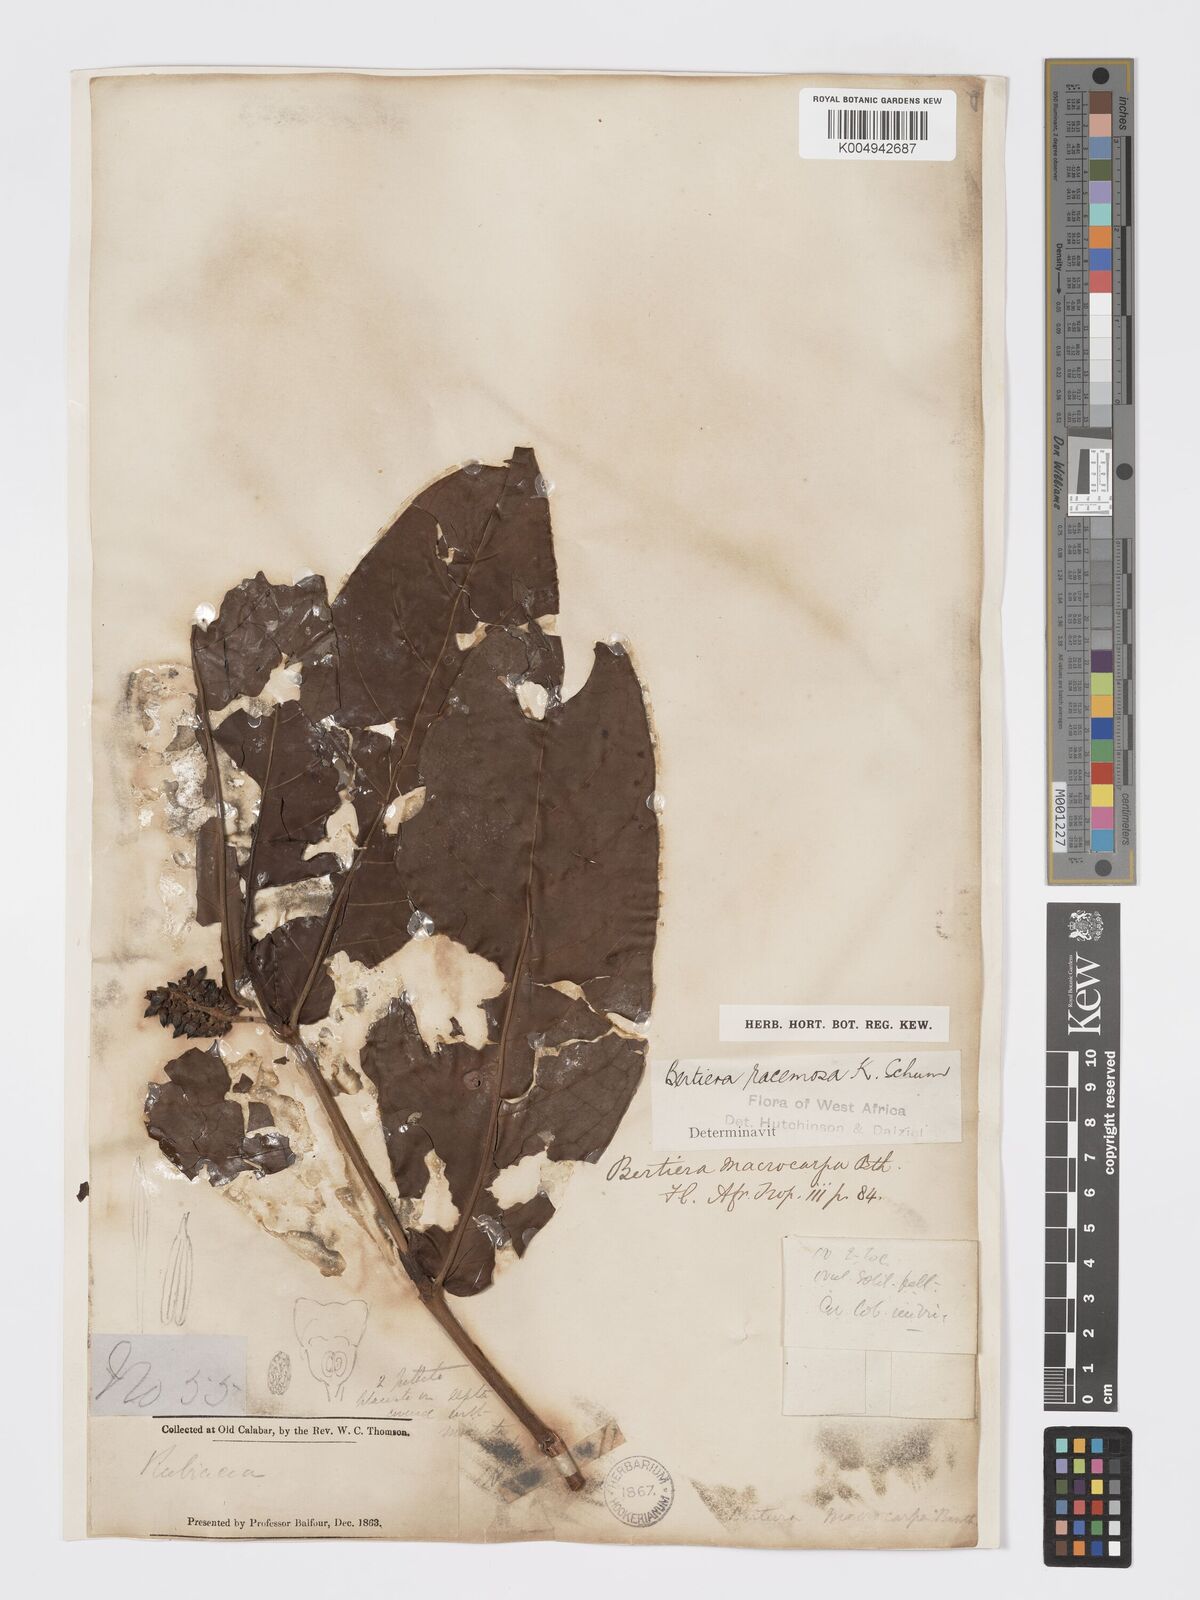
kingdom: Plantae
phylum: Tracheophyta
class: Magnoliopsida
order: Gentianales
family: Rubiaceae
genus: Bertiera
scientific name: Bertiera racemosa
